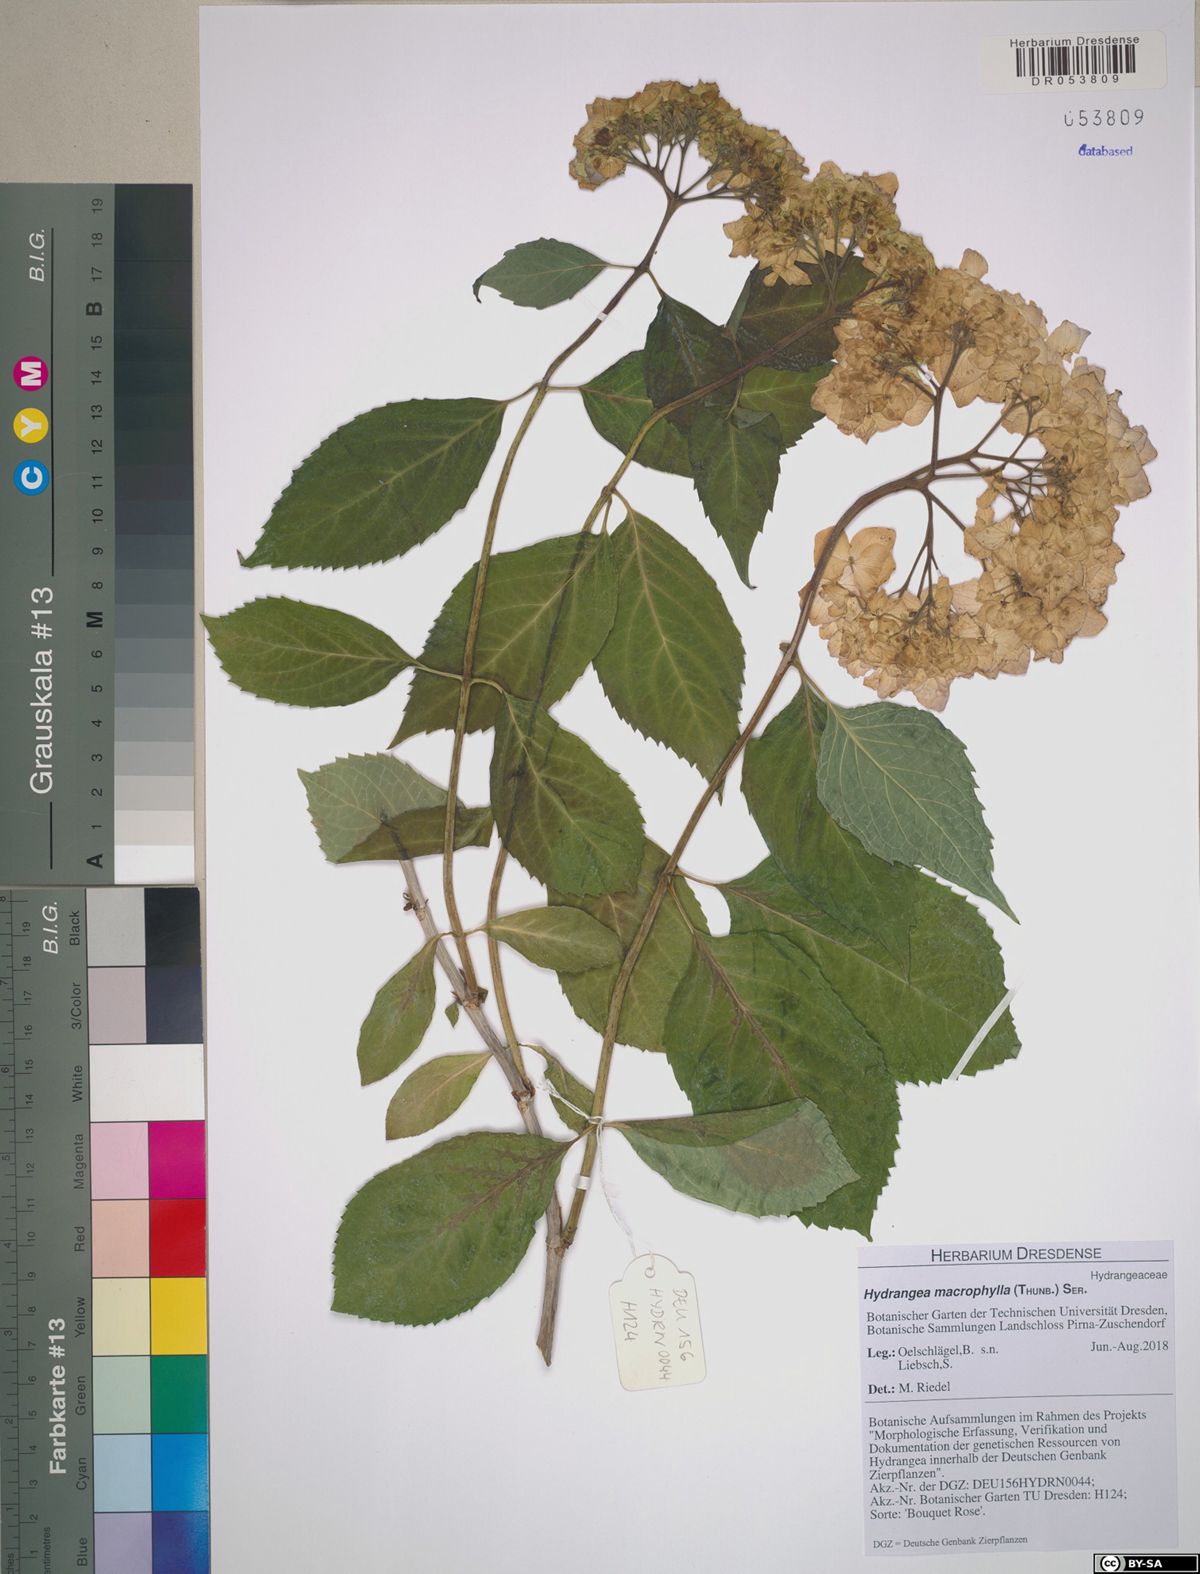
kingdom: Plantae
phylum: Tracheophyta
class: Magnoliopsida
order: Cornales
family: Hydrangeaceae
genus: Hydrangea
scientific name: Hydrangea macrophylla
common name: Hydrangea
